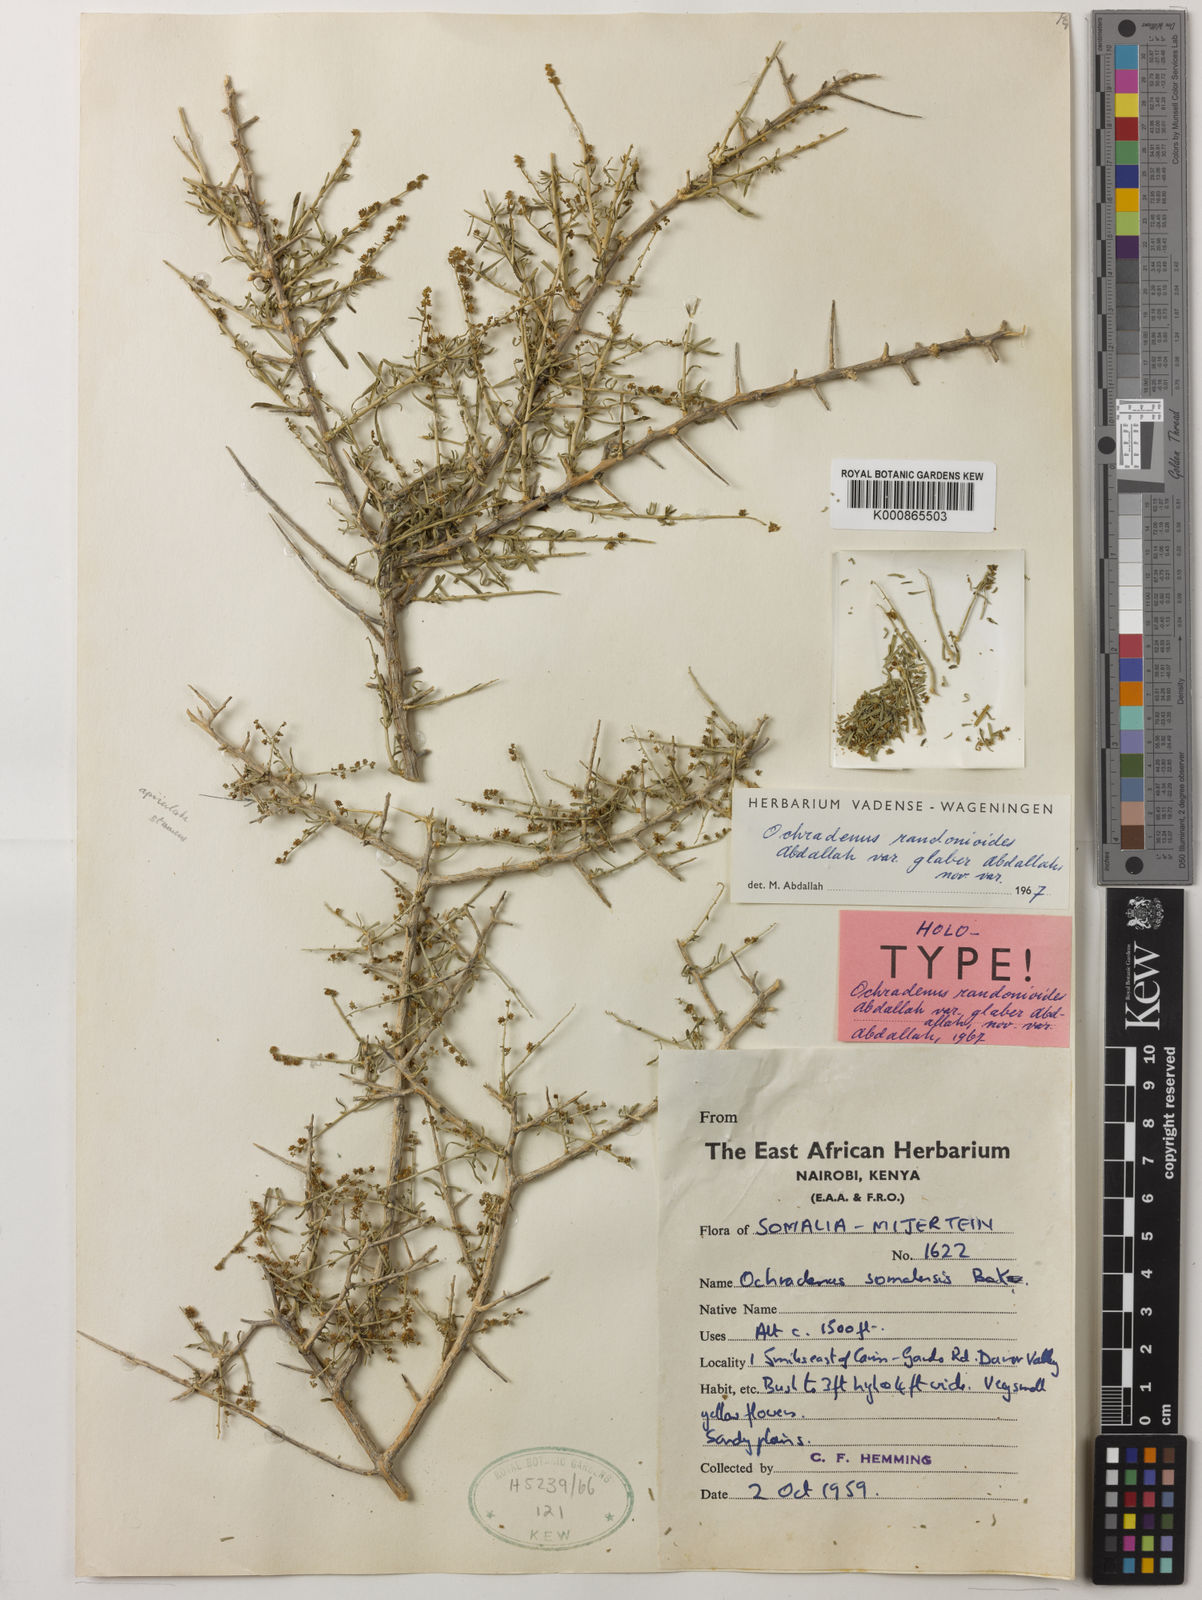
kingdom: Plantae
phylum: Tracheophyta
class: Magnoliopsida
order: Brassicales
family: Resedaceae
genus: Ochradenus
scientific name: Ochradenus somalensis
